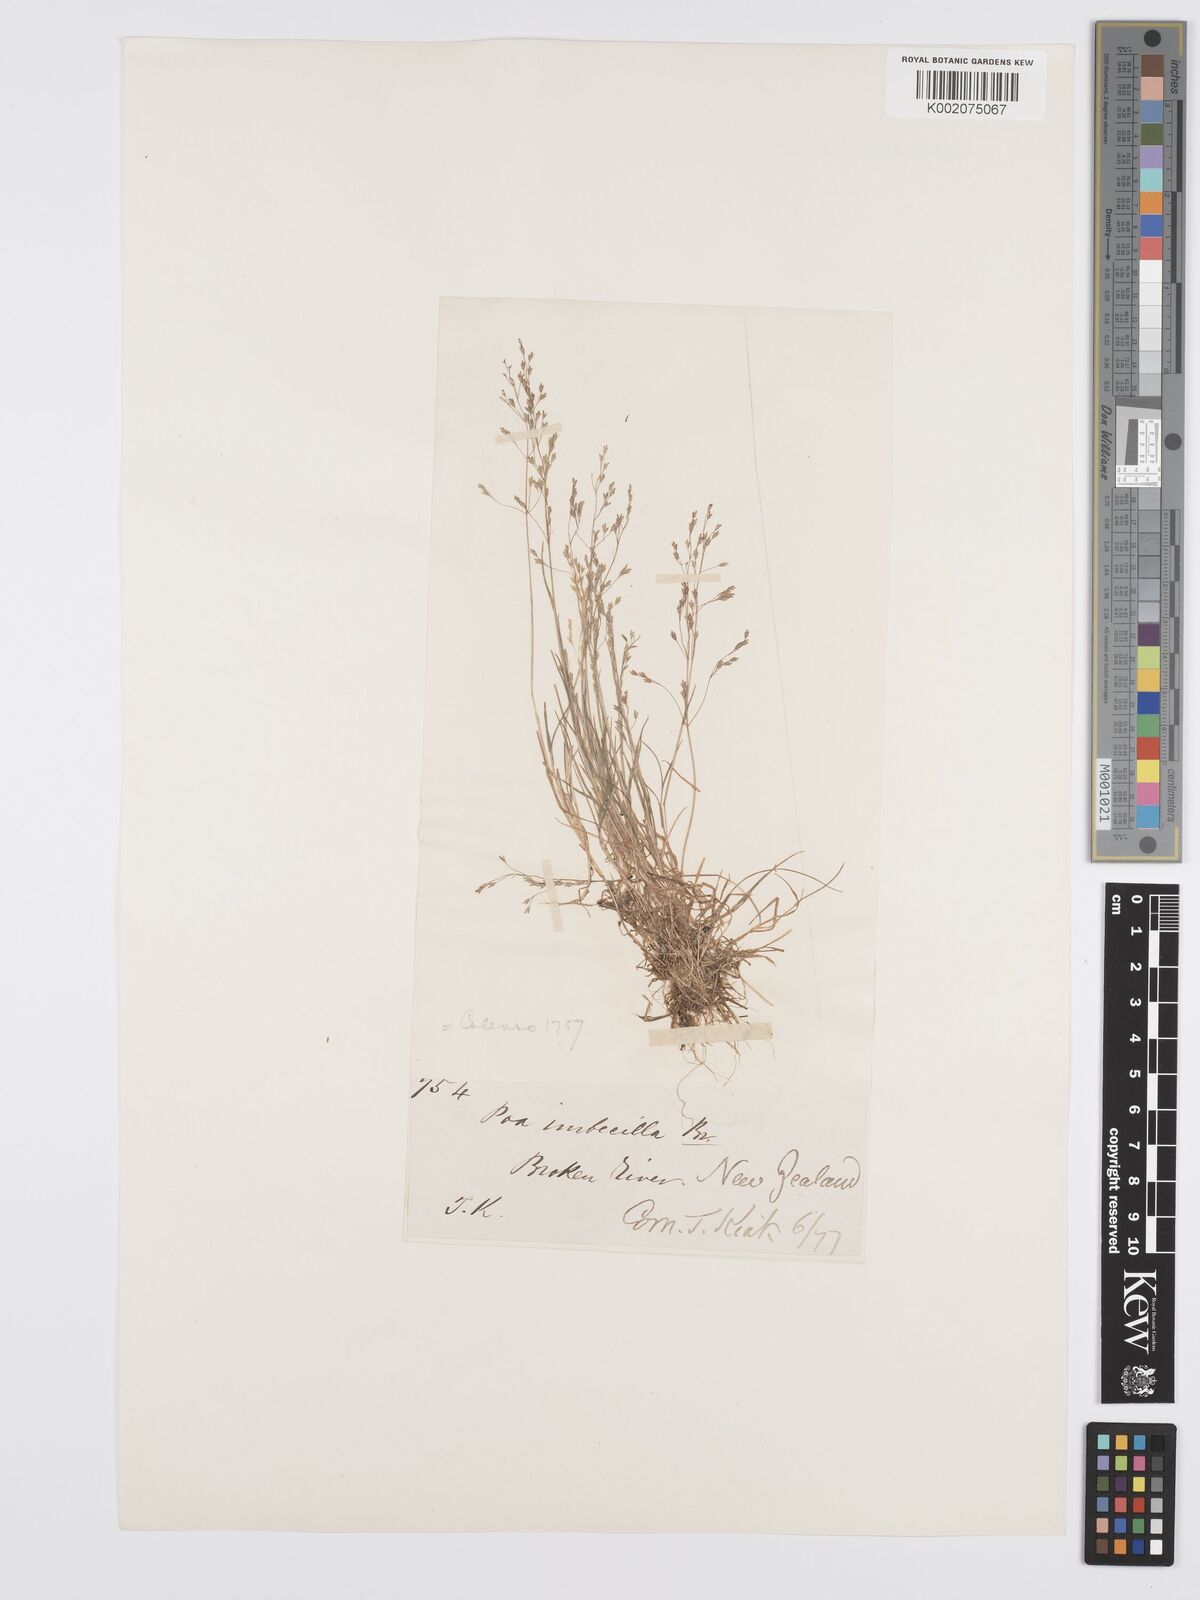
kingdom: Plantae
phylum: Tracheophyta
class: Liliopsida
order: Poales
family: Poaceae
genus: Poa
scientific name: Poa breviglumis
